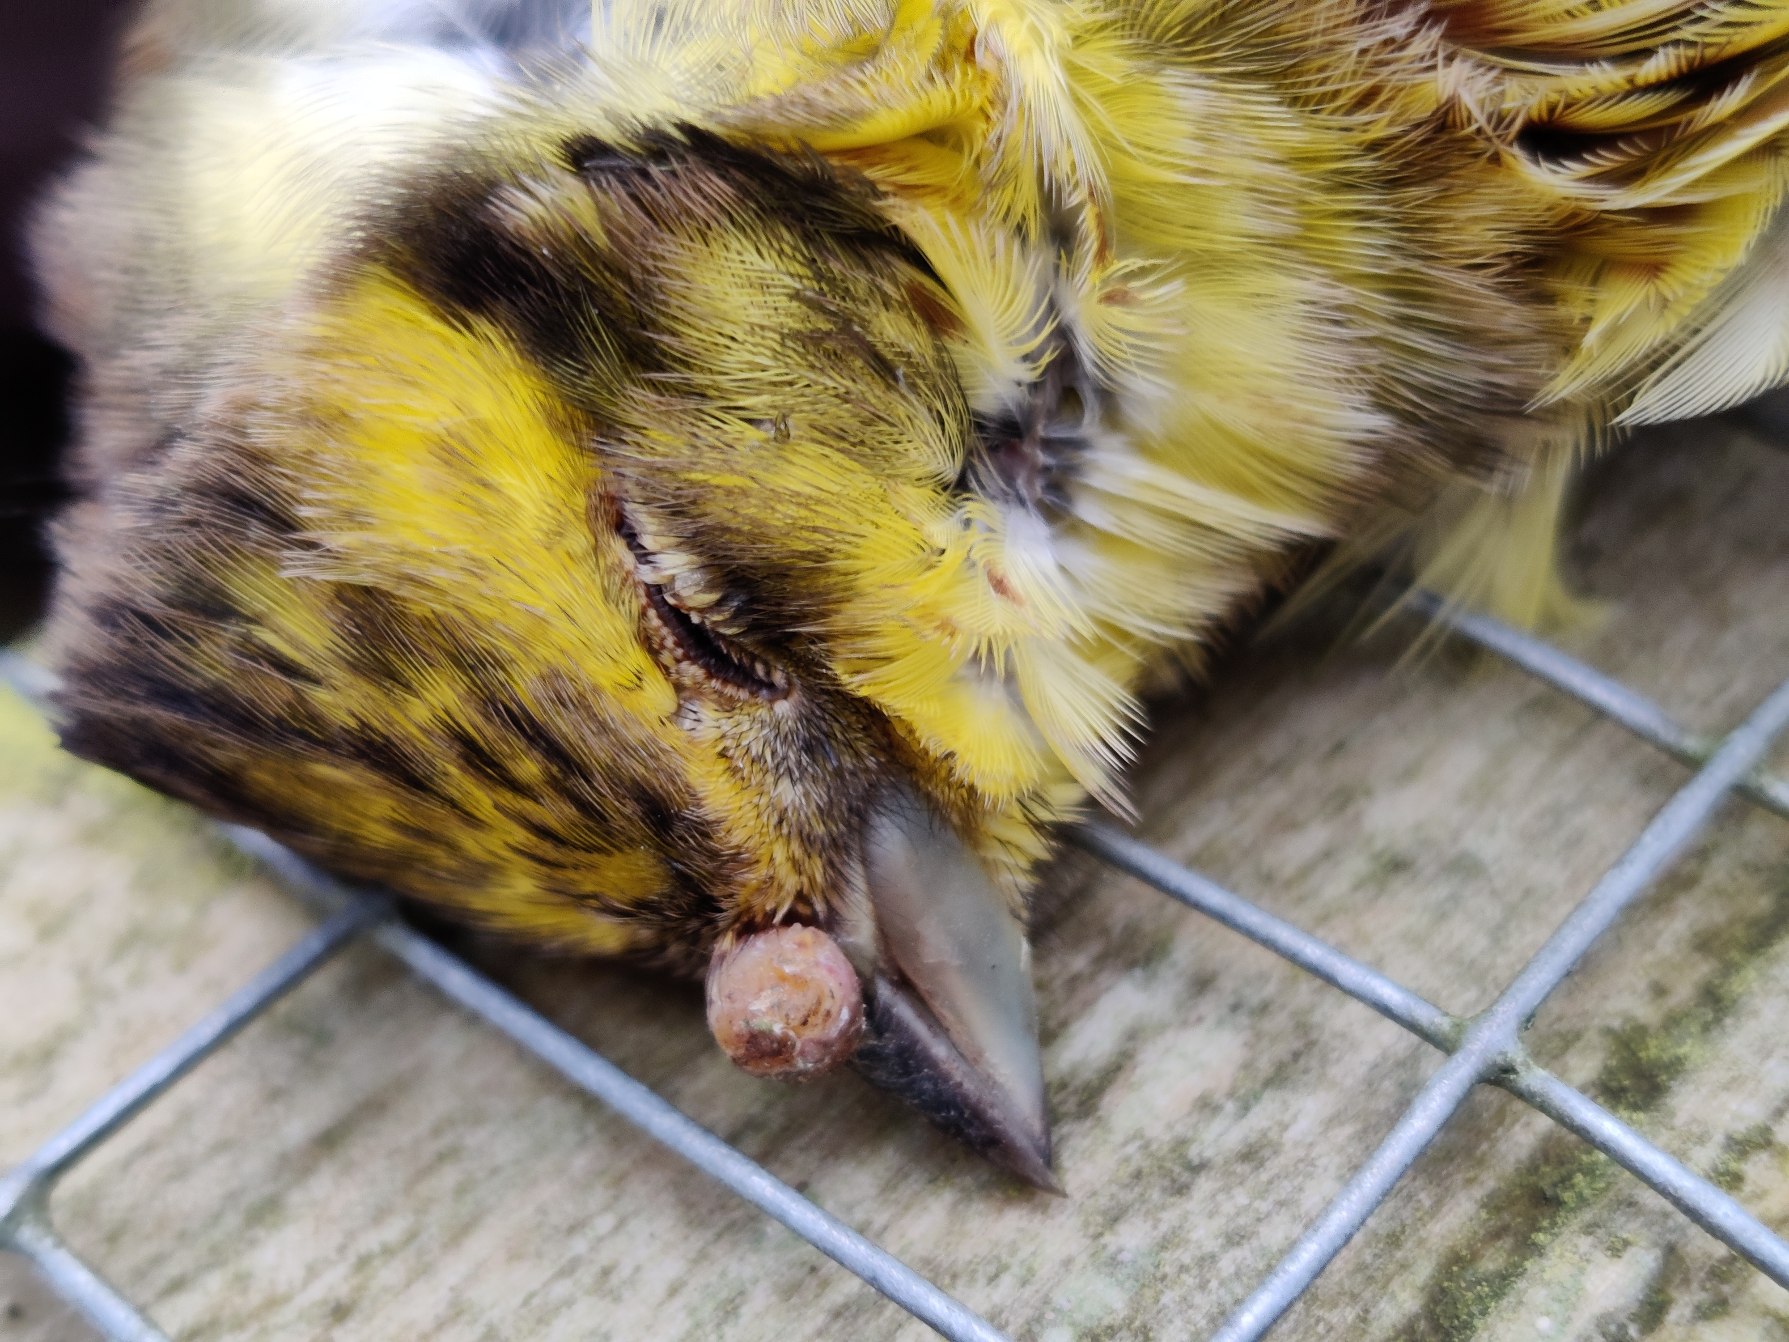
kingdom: Animalia
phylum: Chordata
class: Aves
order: Passeriformes
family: Emberizidae
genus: Emberiza
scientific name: Emberiza citrinella
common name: Gulspurv
